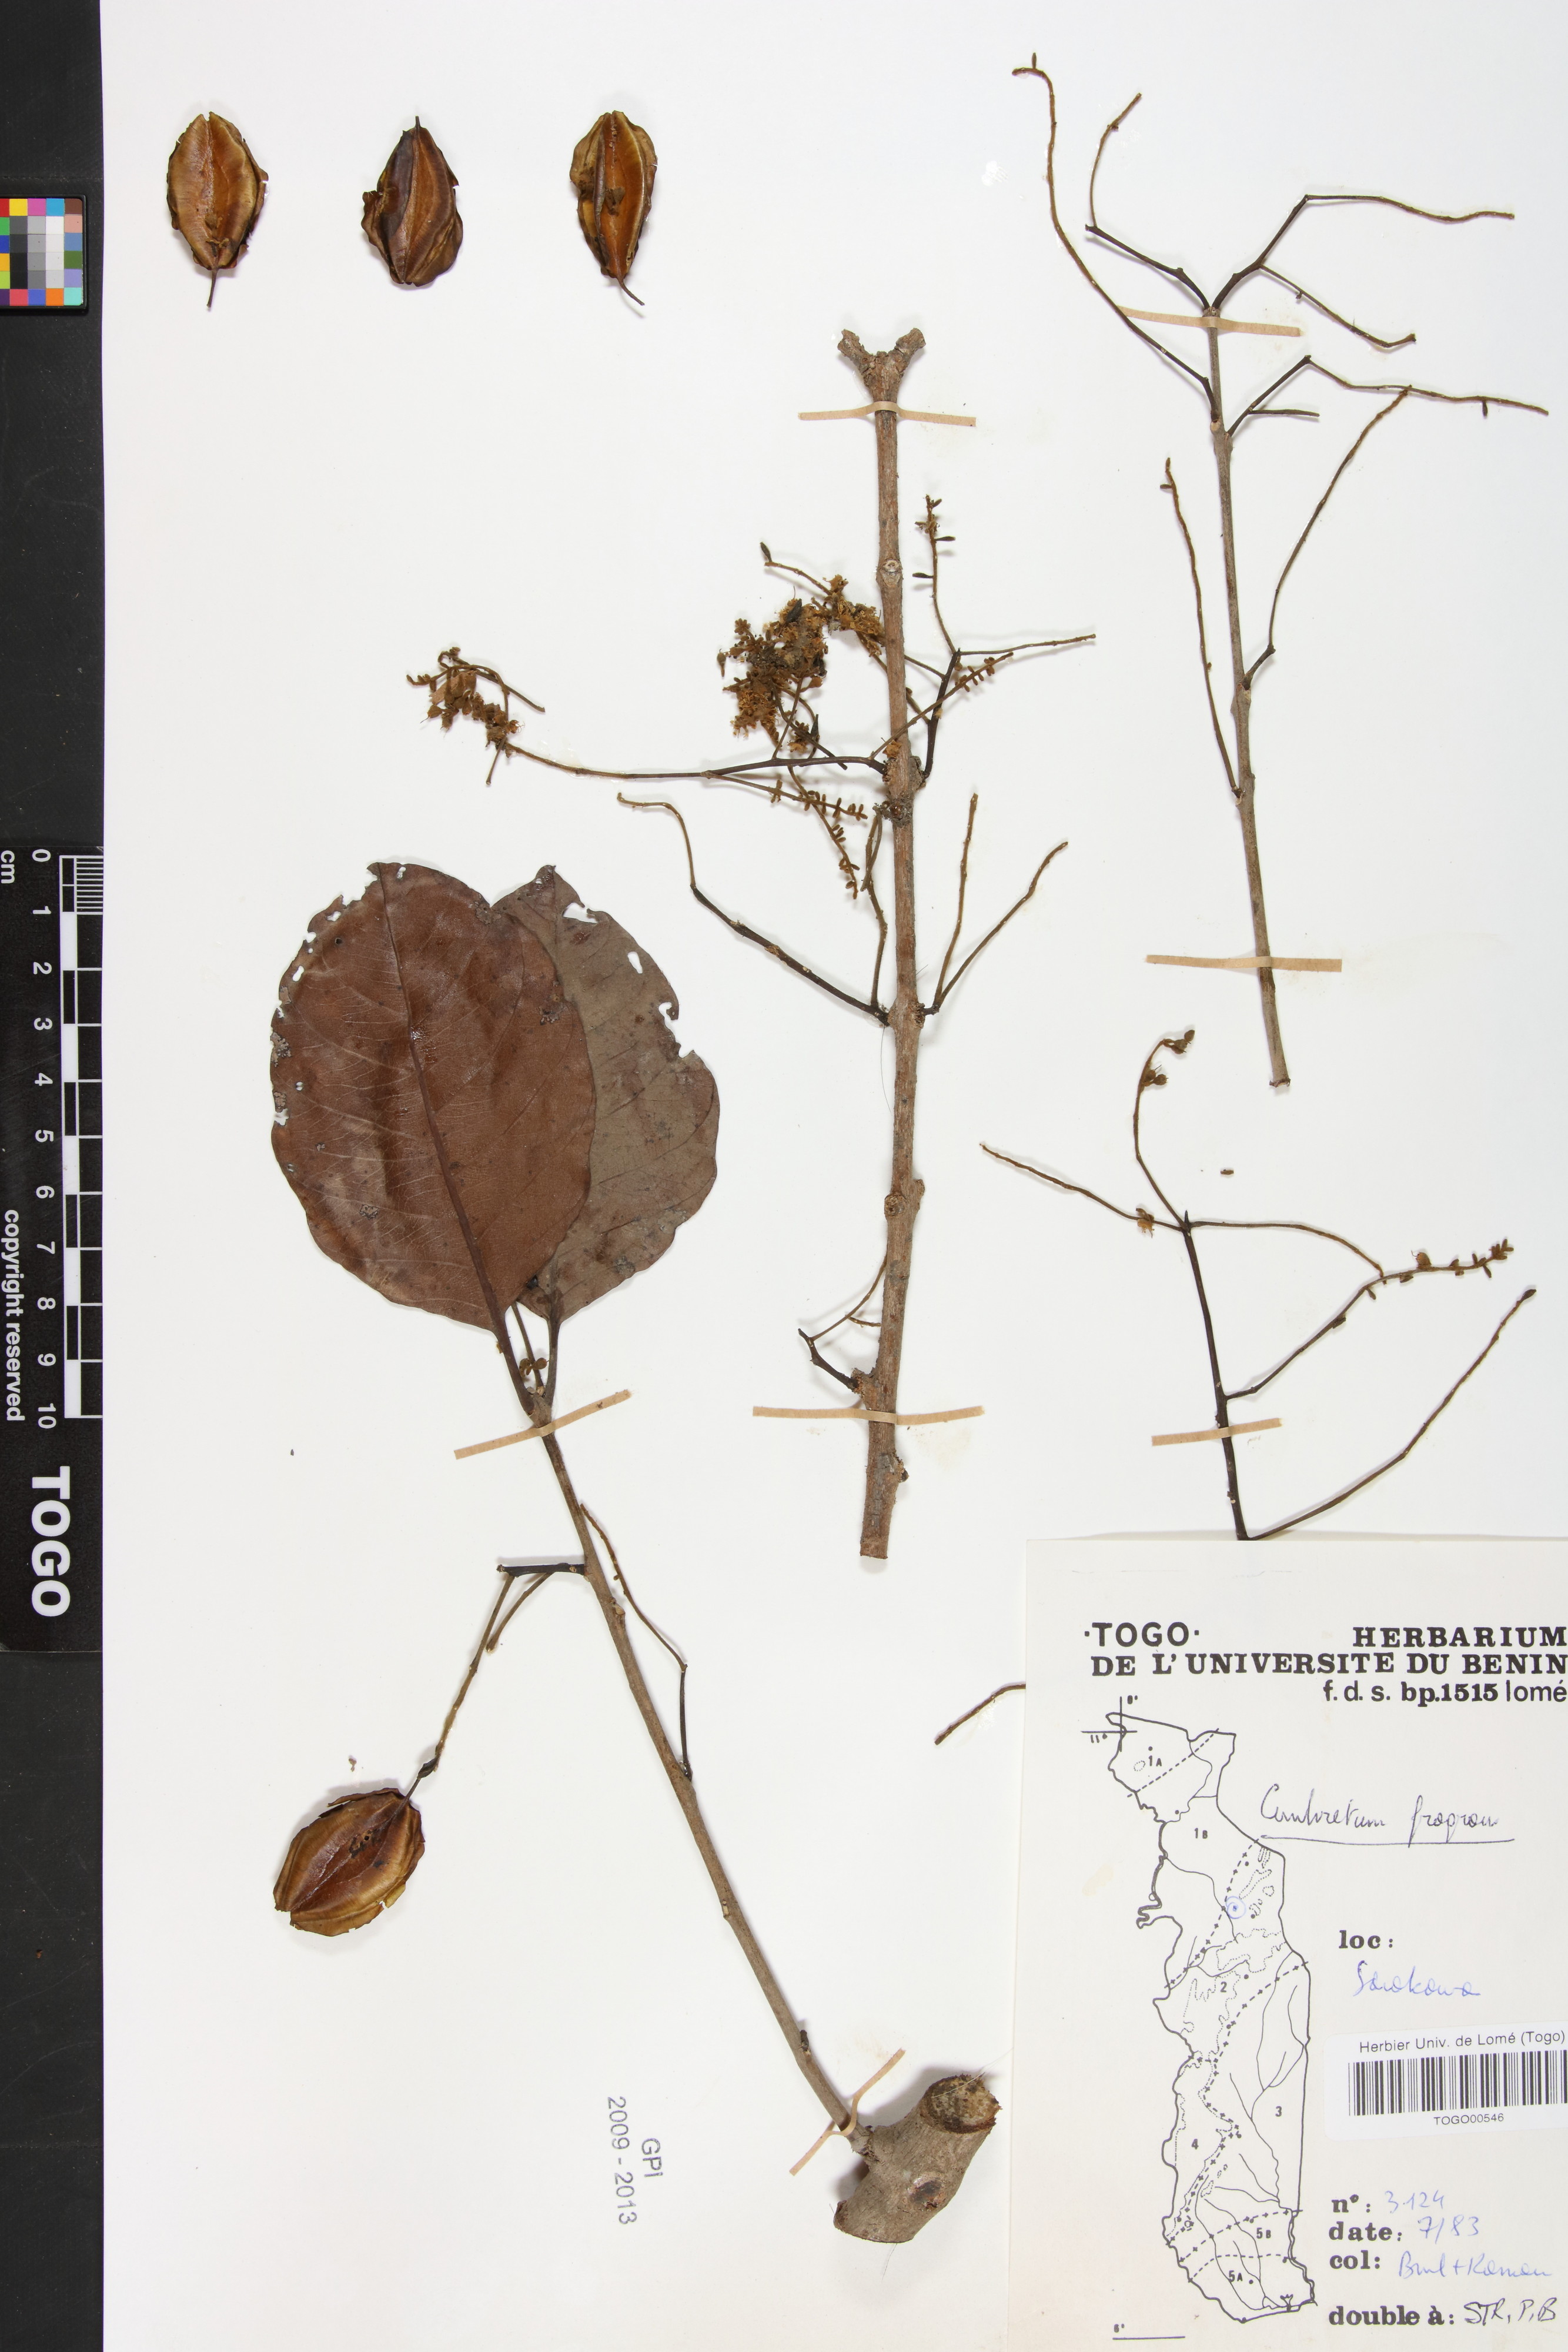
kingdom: Plantae
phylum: Tracheophyta
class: Magnoliopsida
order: Myrtales
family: Combretaceae
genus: Combretum
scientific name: Combretum adenogonium
